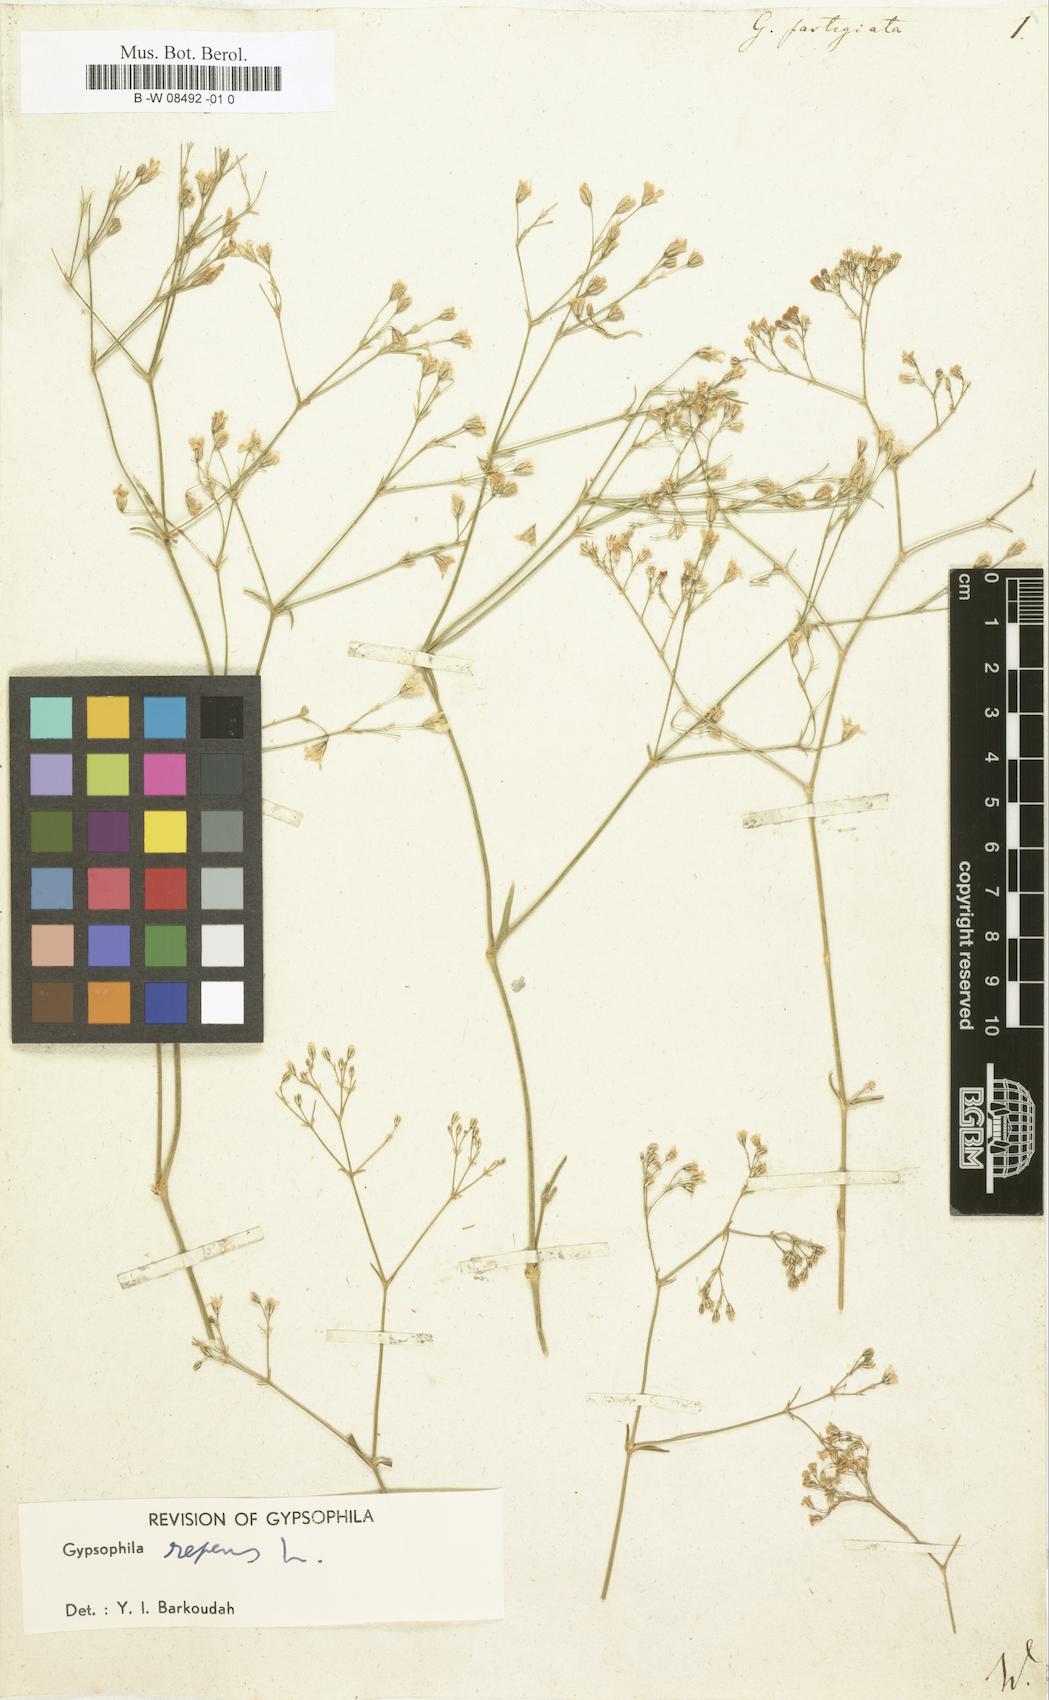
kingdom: Plantae
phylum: Tracheophyta
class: Magnoliopsida
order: Caryophyllales
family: Caryophyllaceae
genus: Gypsophila
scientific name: Gypsophila fastigiata
